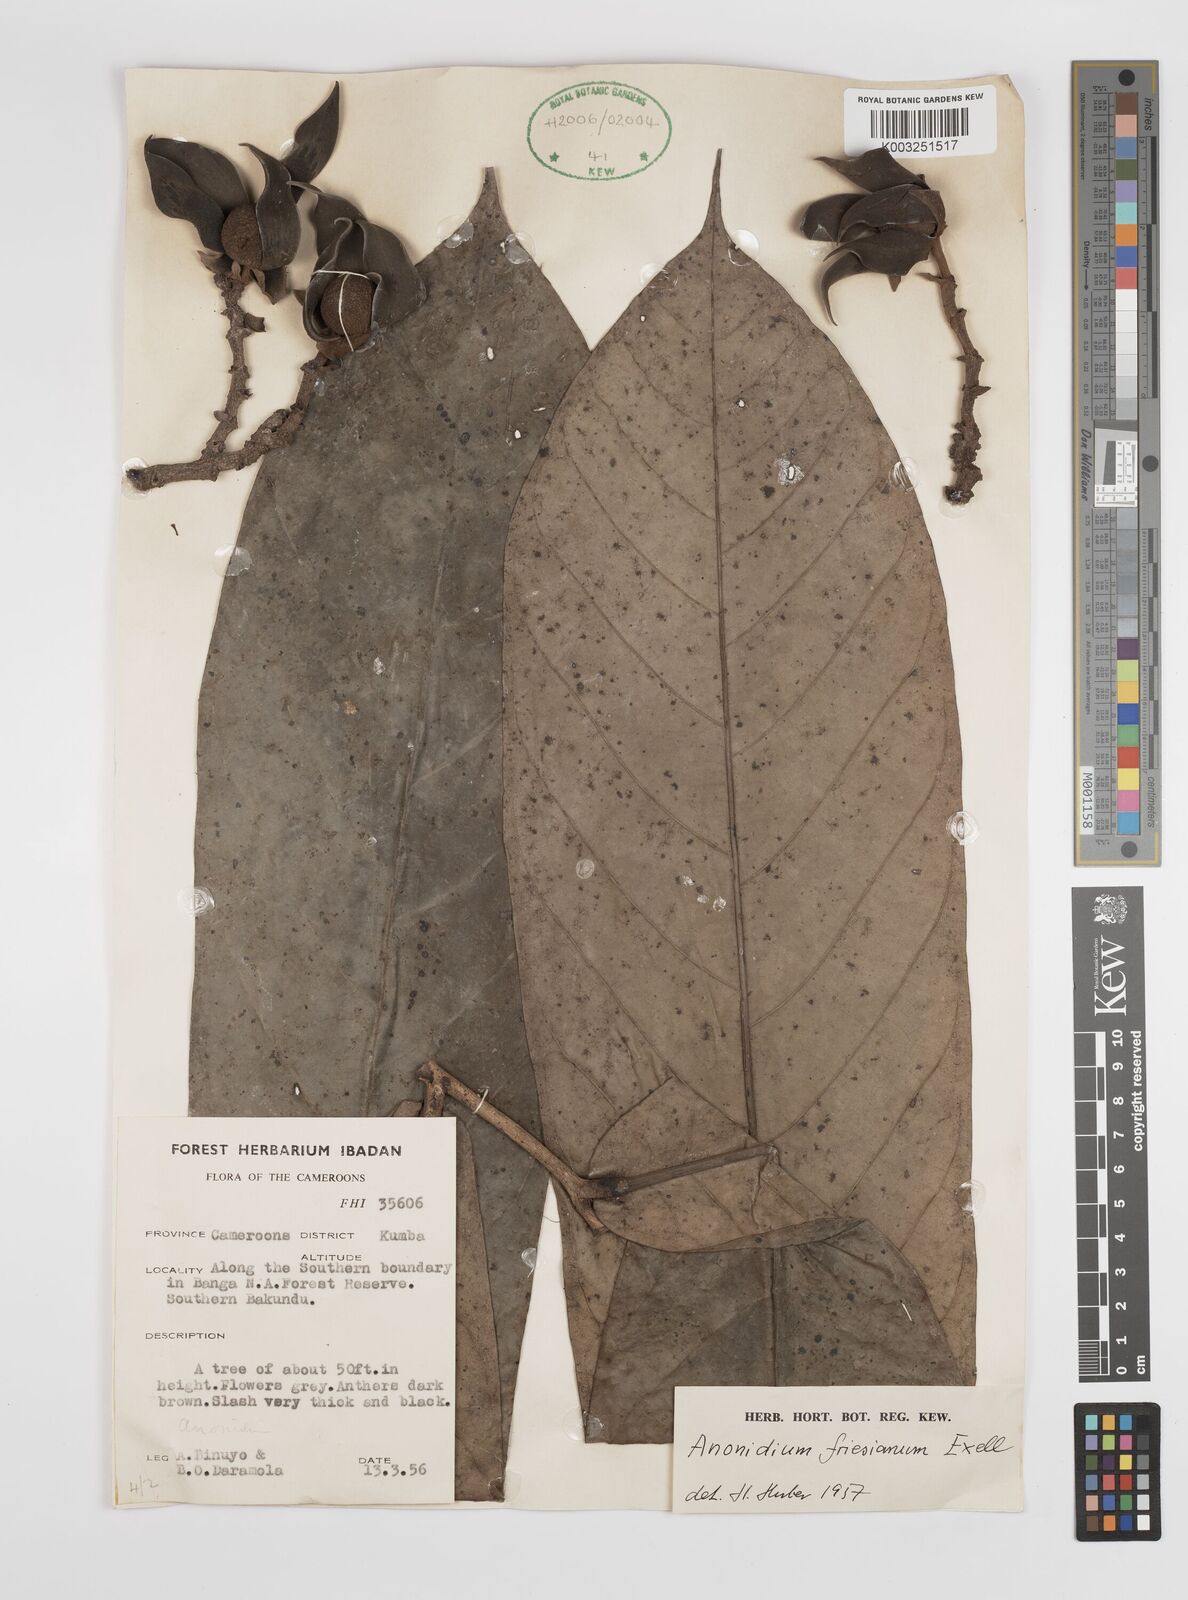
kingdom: Plantae
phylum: Tracheophyta
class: Magnoliopsida
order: Magnoliales
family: Annonaceae
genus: Anonidium
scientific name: Anonidium mannii
